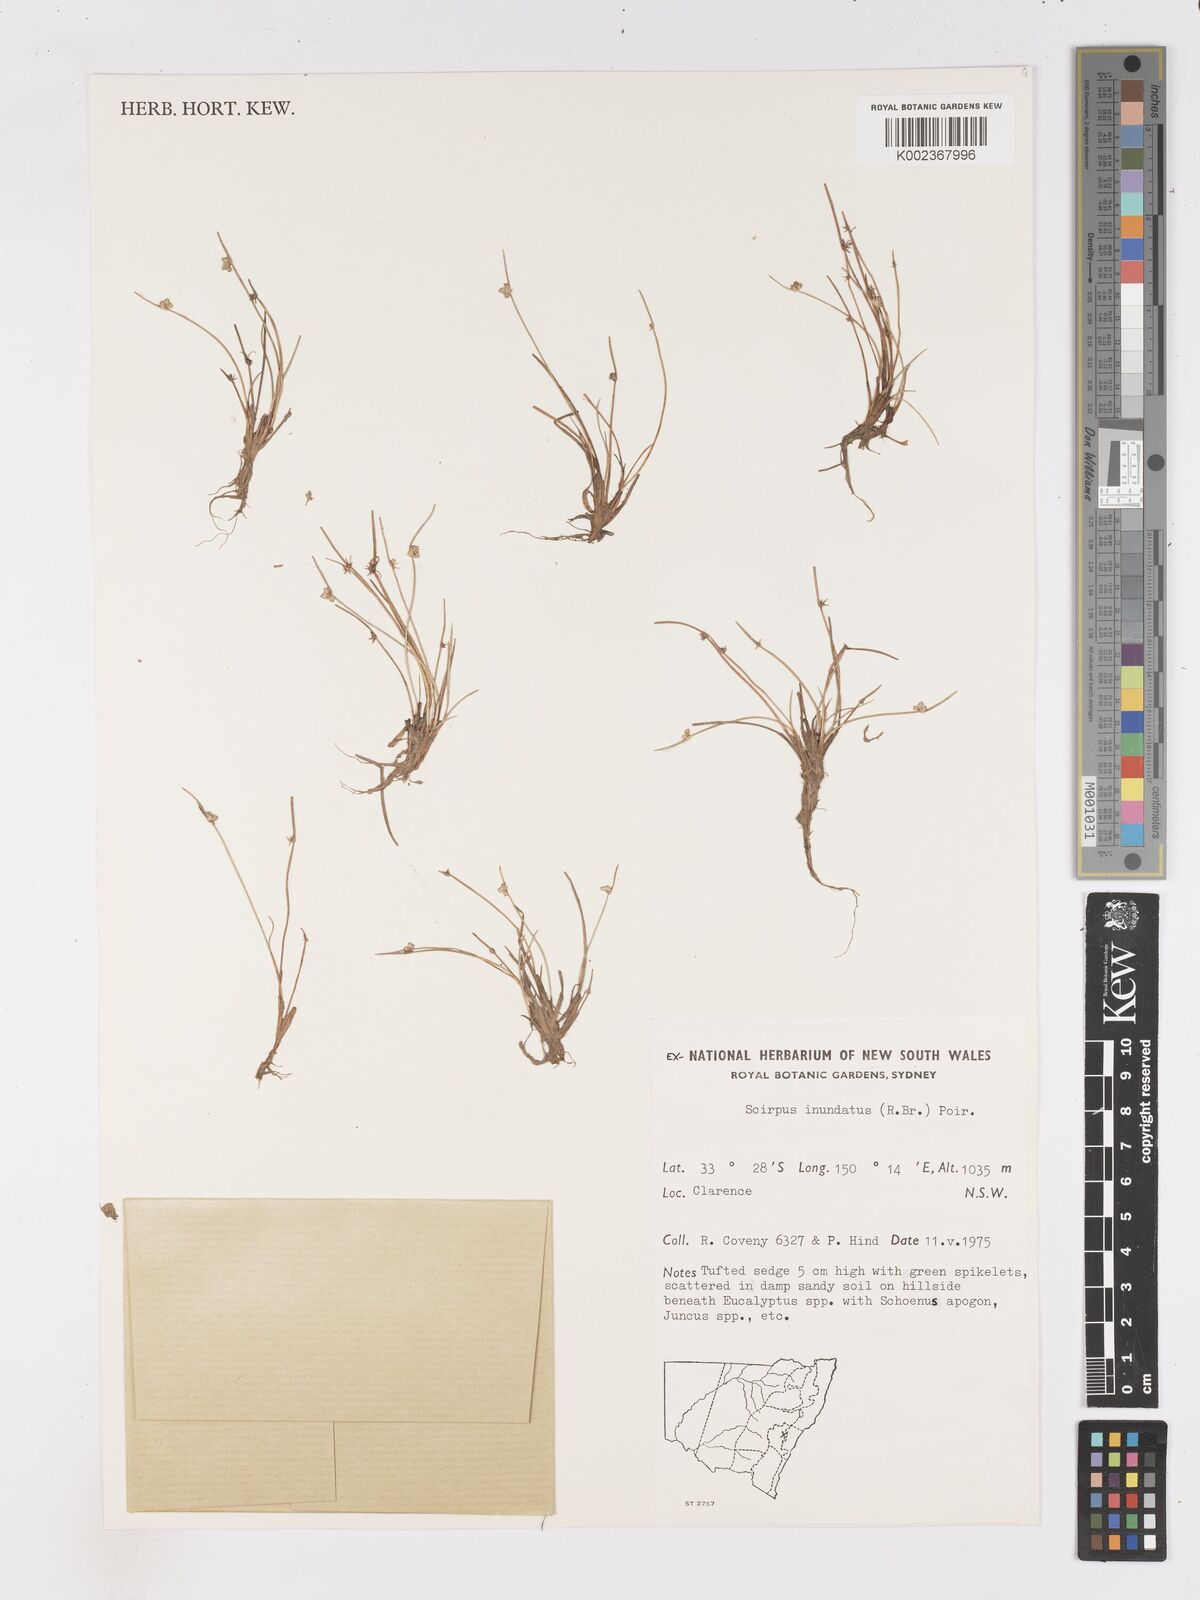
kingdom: Plantae
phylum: Tracheophyta
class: Liliopsida
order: Poales
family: Cyperaceae
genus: Isolepis
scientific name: Isolepis inundata
